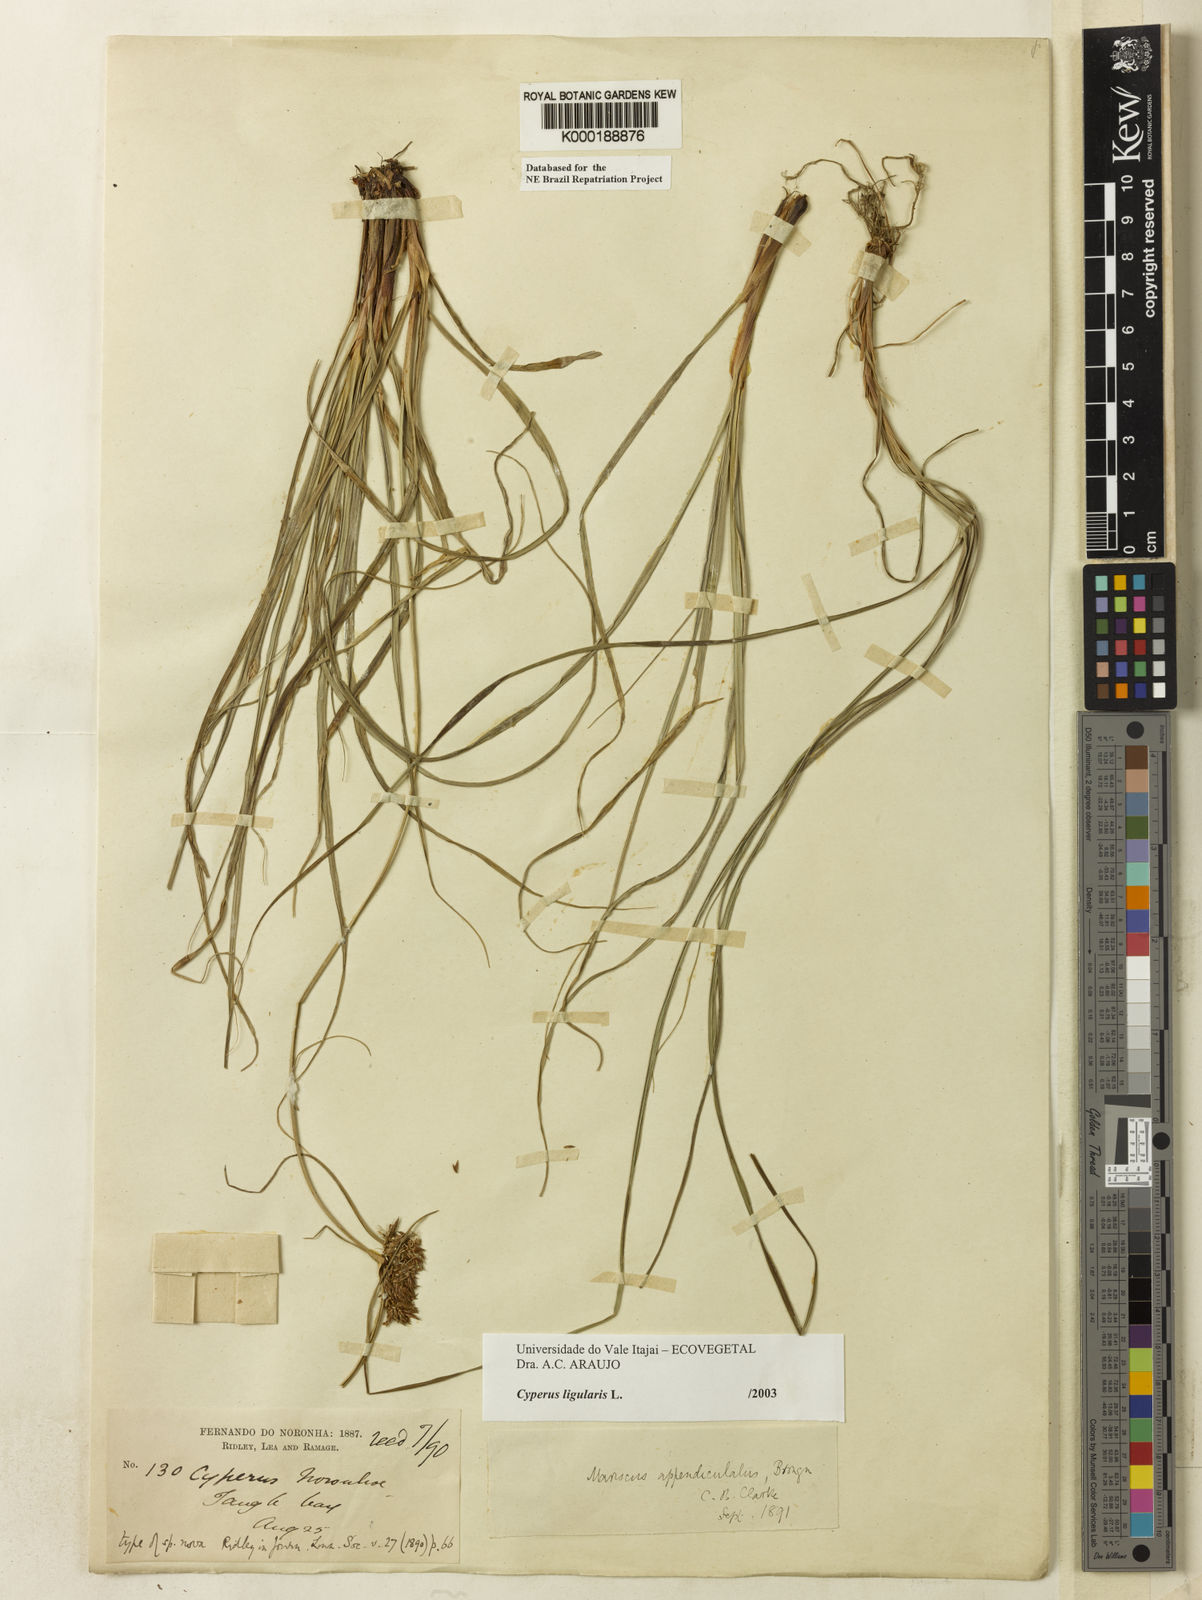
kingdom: Plantae
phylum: Tracheophyta
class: Liliopsida
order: Poales
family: Cyperaceae
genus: Cyperus
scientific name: Cyperus ligularis
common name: Swamp flat sedge
